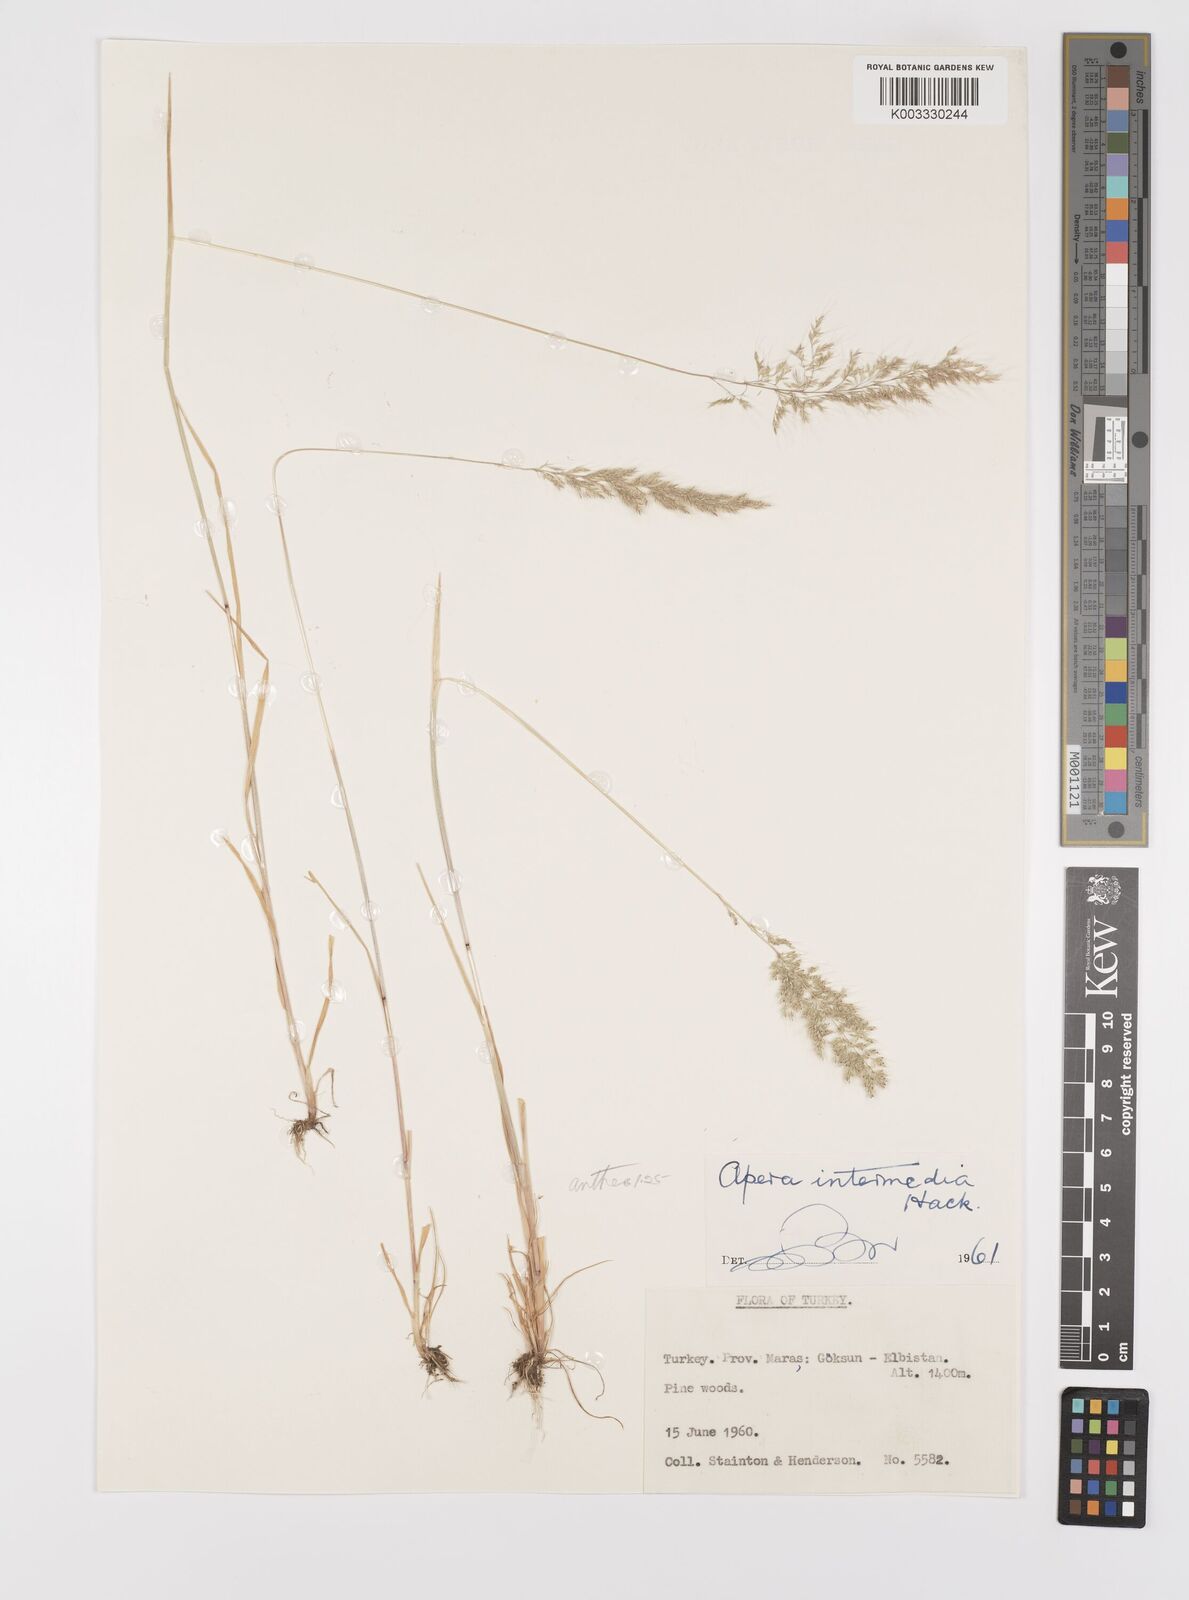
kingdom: Plantae
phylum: Tracheophyta
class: Liliopsida
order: Poales
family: Poaceae
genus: Apera
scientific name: Apera intermedia
